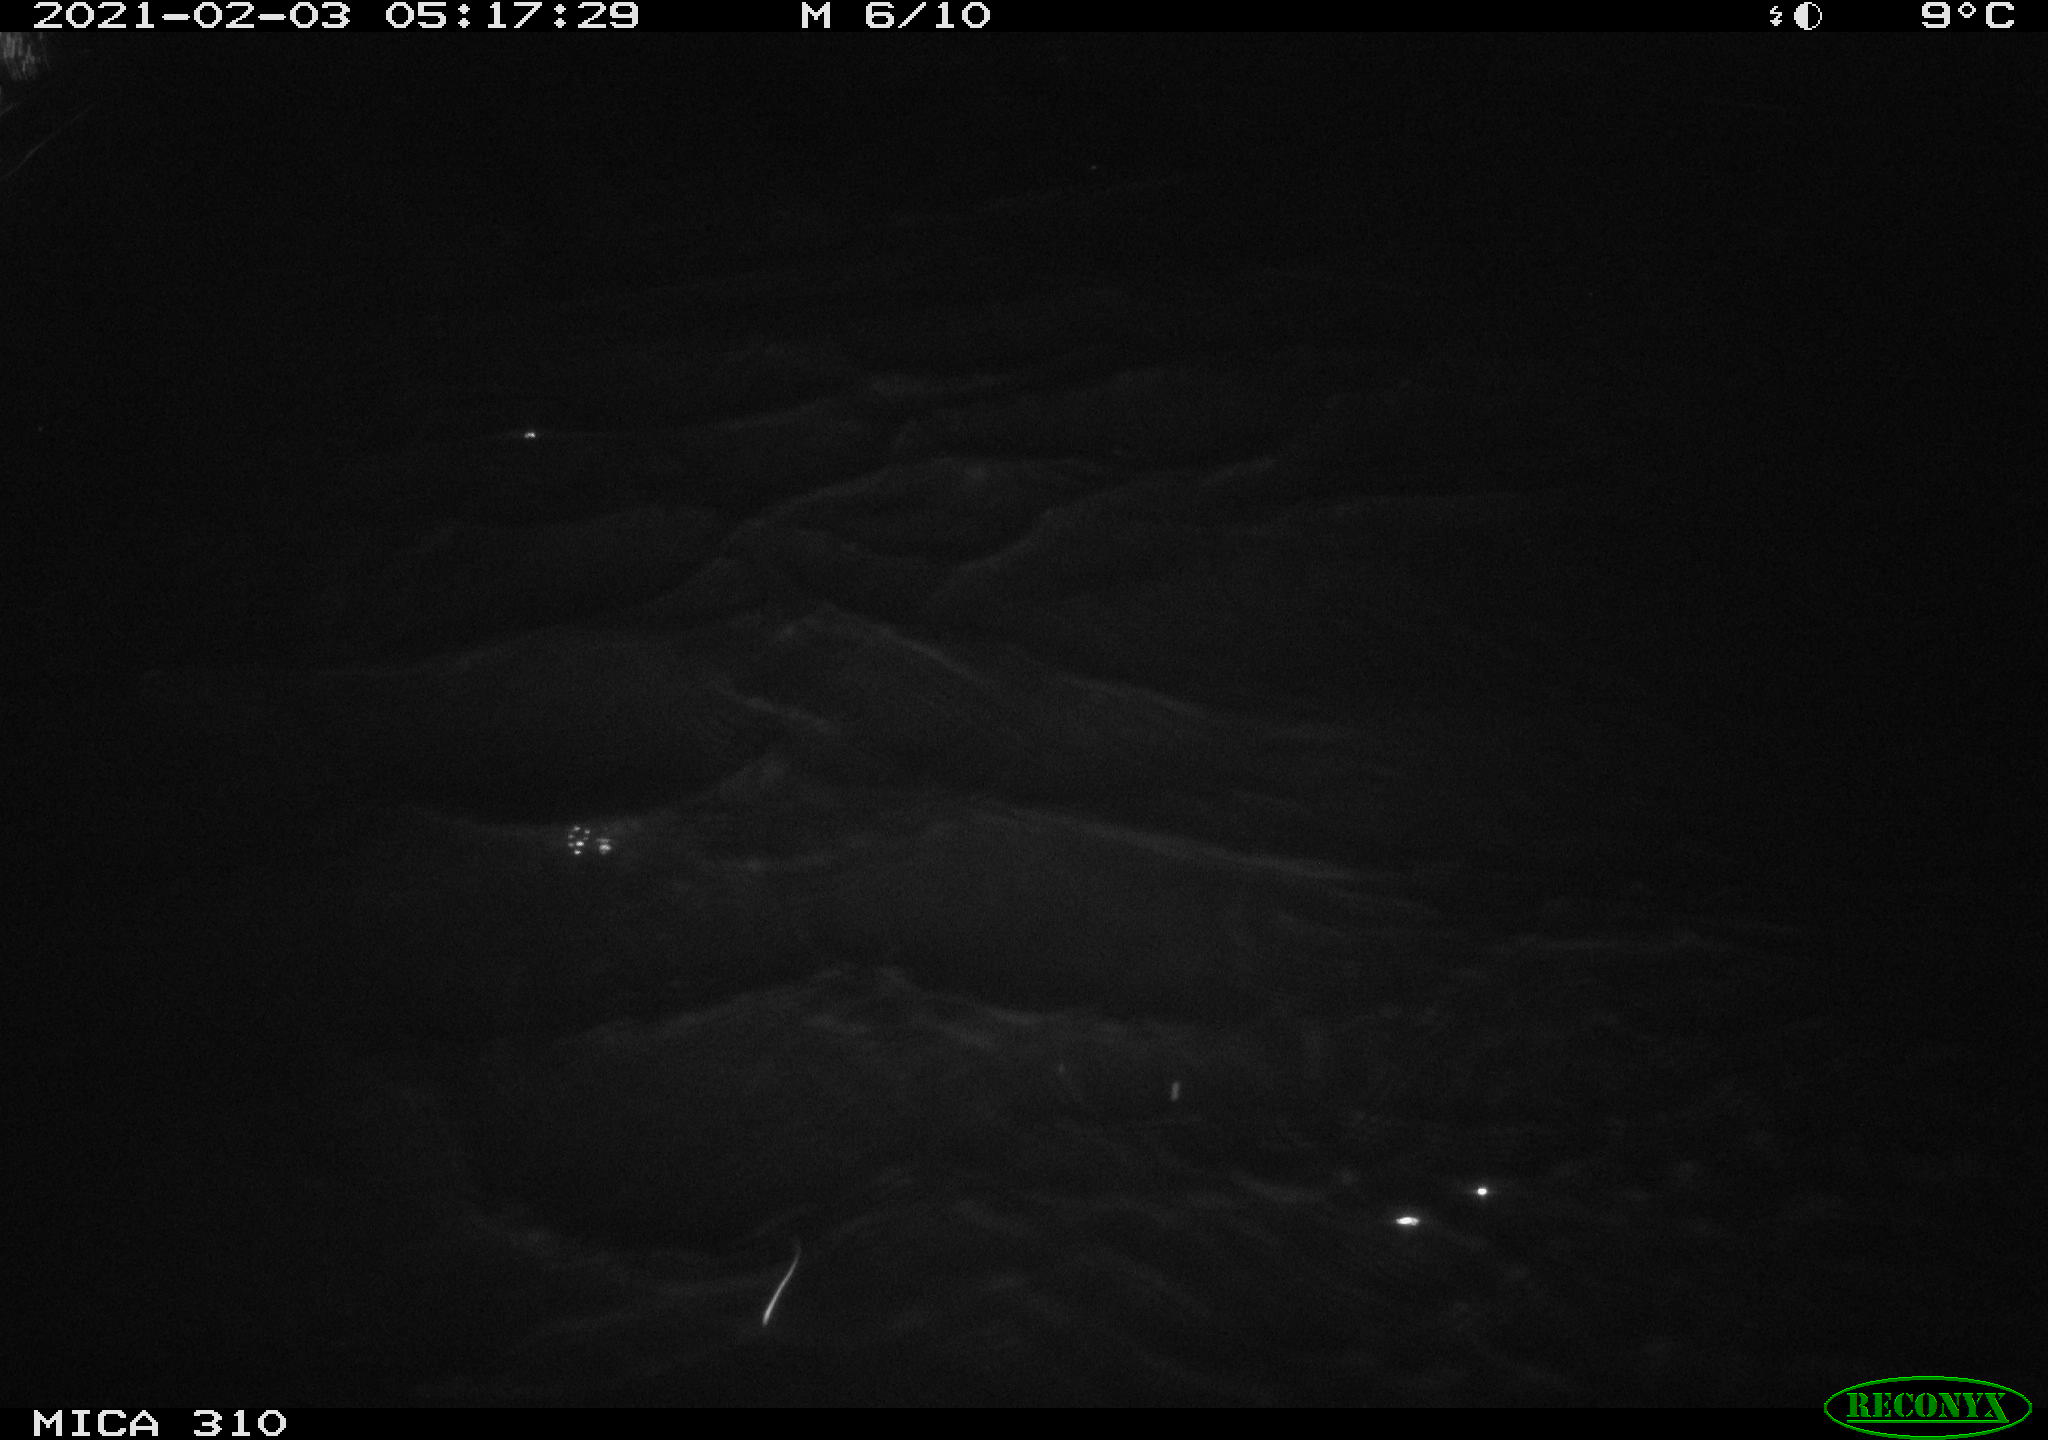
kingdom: Animalia
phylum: Chordata
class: Mammalia
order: Rodentia
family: Muridae
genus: Rattus
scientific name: Rattus norvegicus
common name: Brown rat
